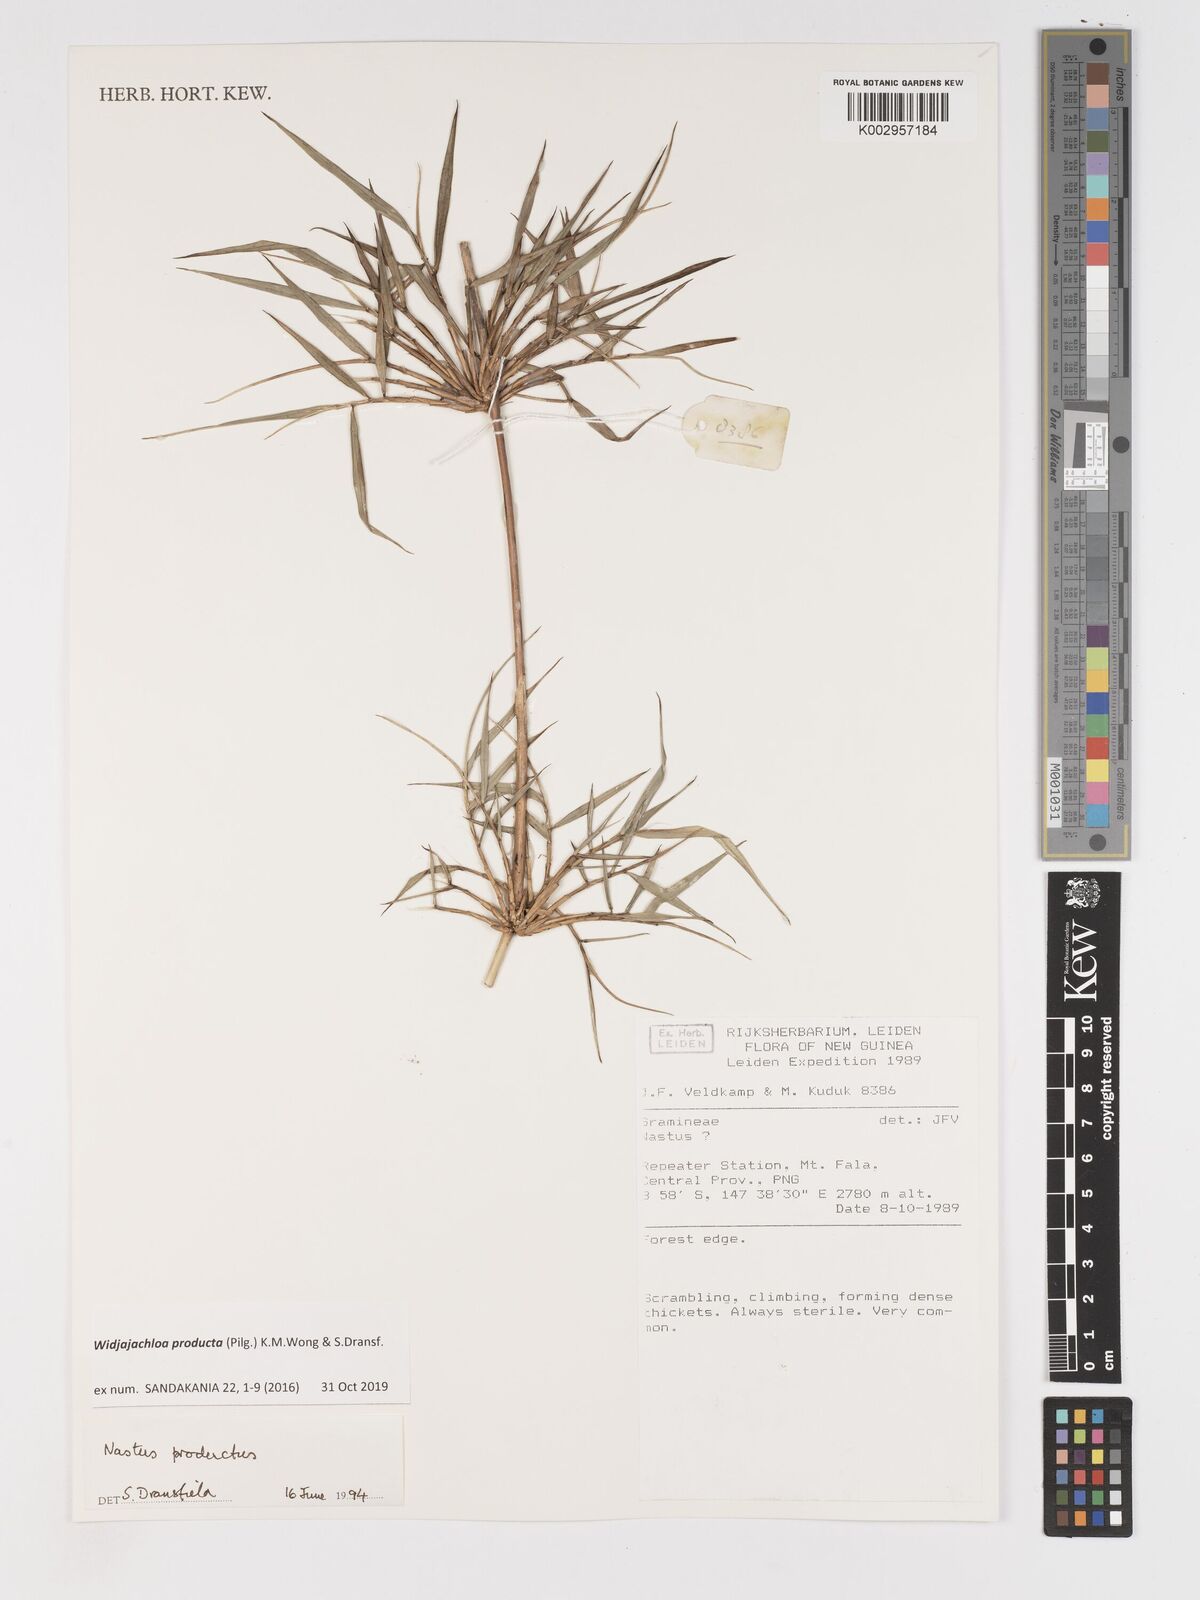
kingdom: Plantae
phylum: Tracheophyta
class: Liliopsida
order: Poales
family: Poaceae
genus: Widjajachloa
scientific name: Widjajachloa producta
